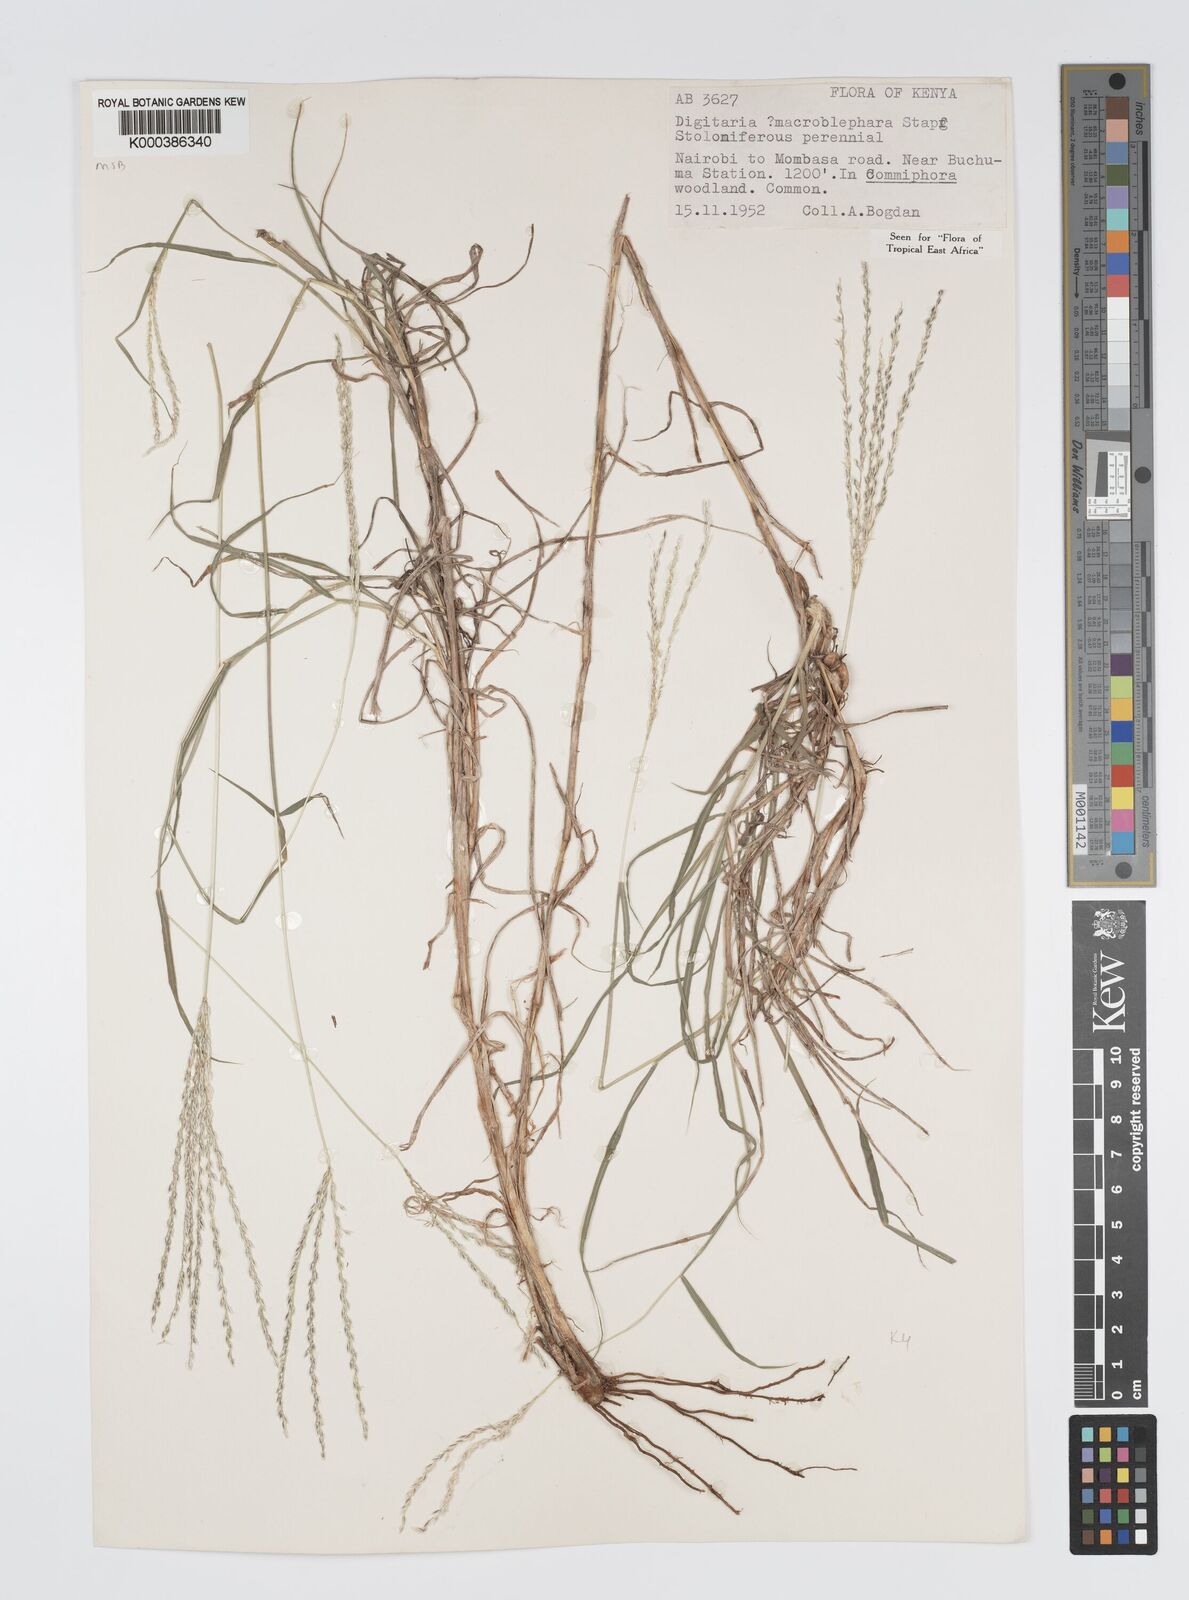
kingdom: Plantae
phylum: Tracheophyta
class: Liliopsida
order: Poales
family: Poaceae
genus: Digitaria
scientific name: Digitaria macroblephara
